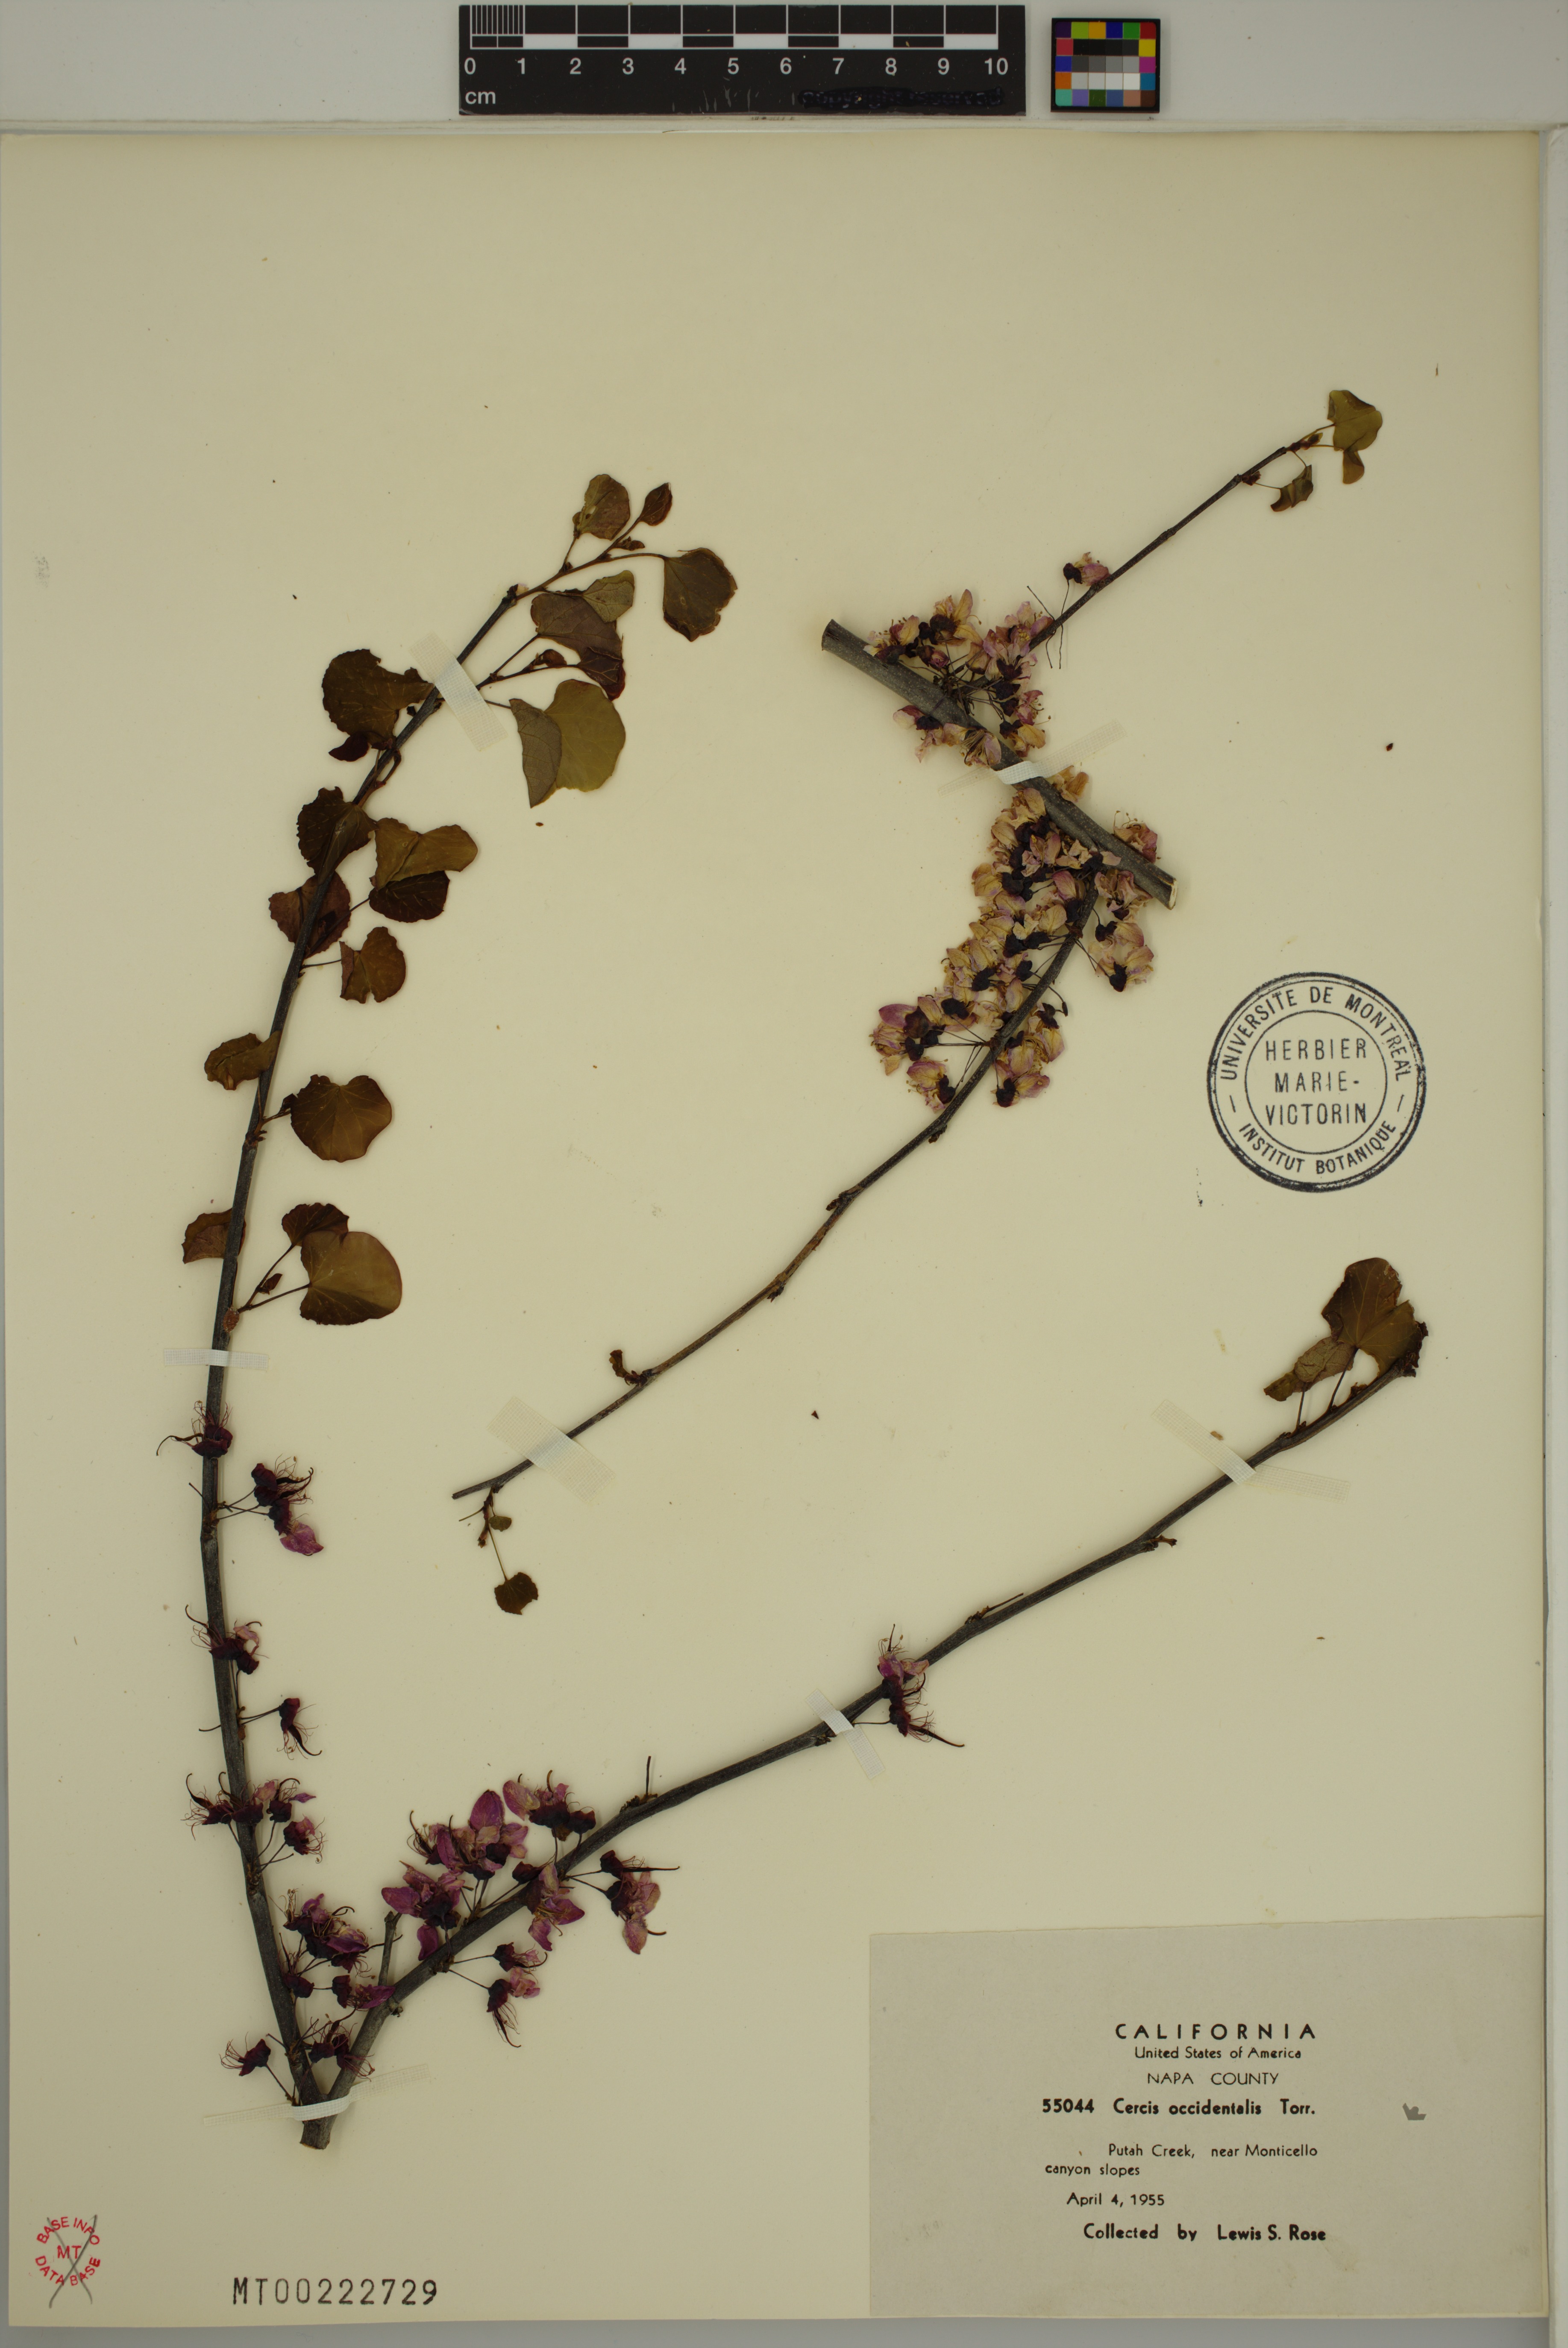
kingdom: Plantae
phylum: Tracheophyta
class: Magnoliopsida
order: Fabales
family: Fabaceae
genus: Cercis
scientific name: Cercis occidentalis
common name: California redbud
